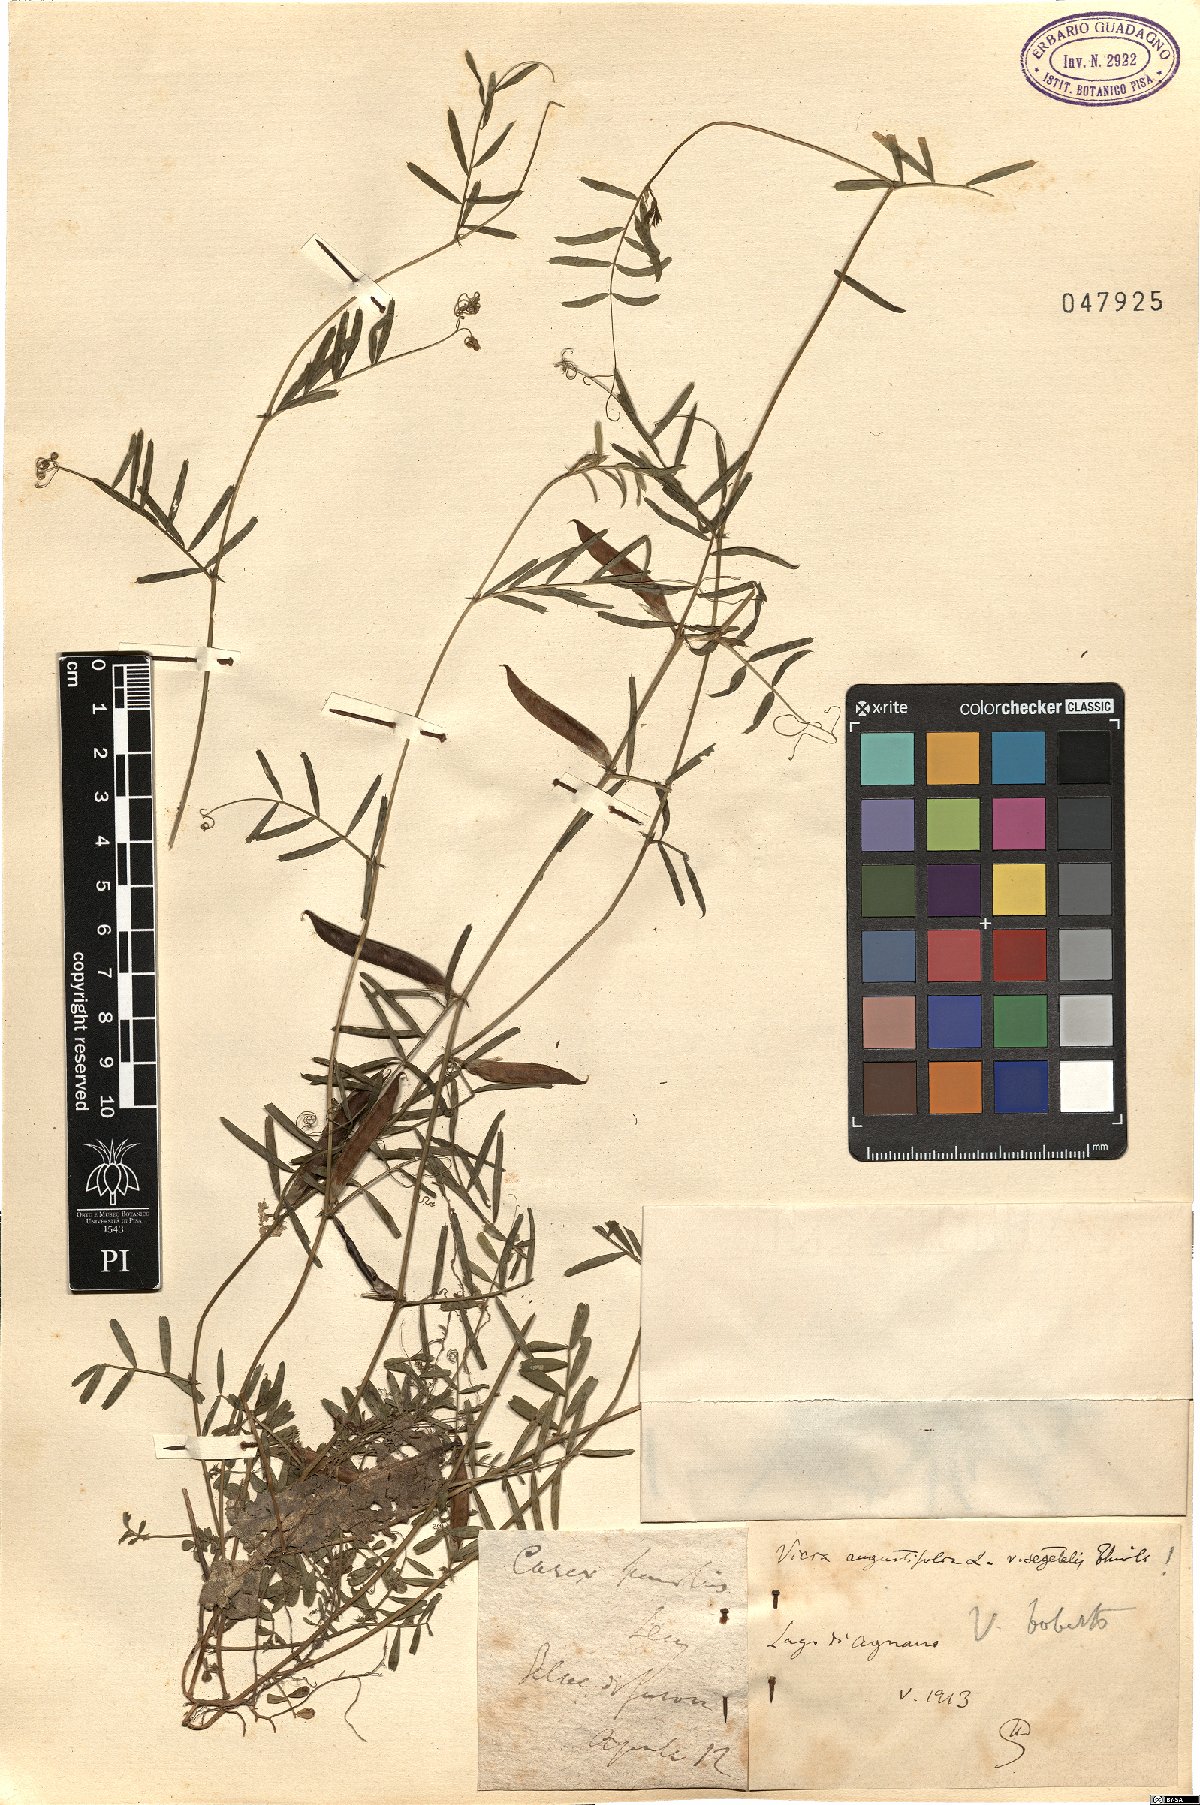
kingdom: Plantae
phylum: Tracheophyta
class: Magnoliopsida
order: Fabales
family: Fabaceae
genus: Vicia
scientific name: Vicia sativa
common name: Garden vetch
